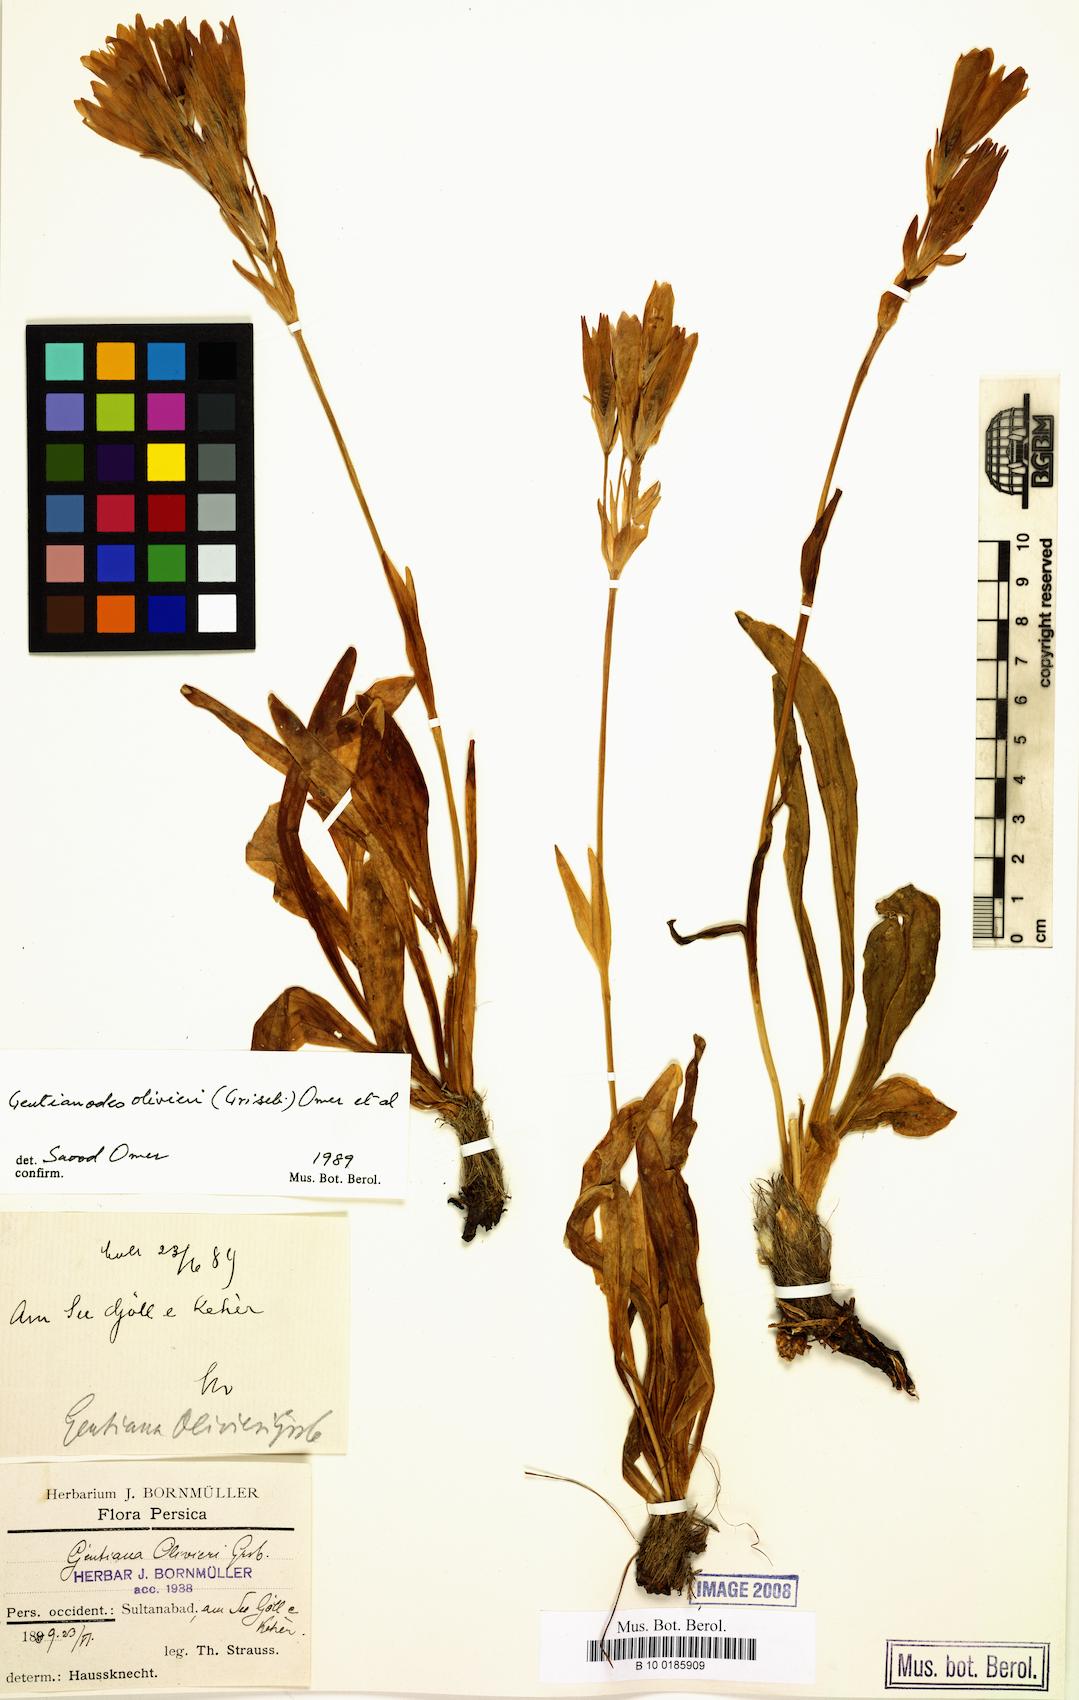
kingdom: Plantae
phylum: Tracheophyta
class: Magnoliopsida
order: Gentianales
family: Gentianaceae
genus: Gentiana
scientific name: Gentiana olivieri
